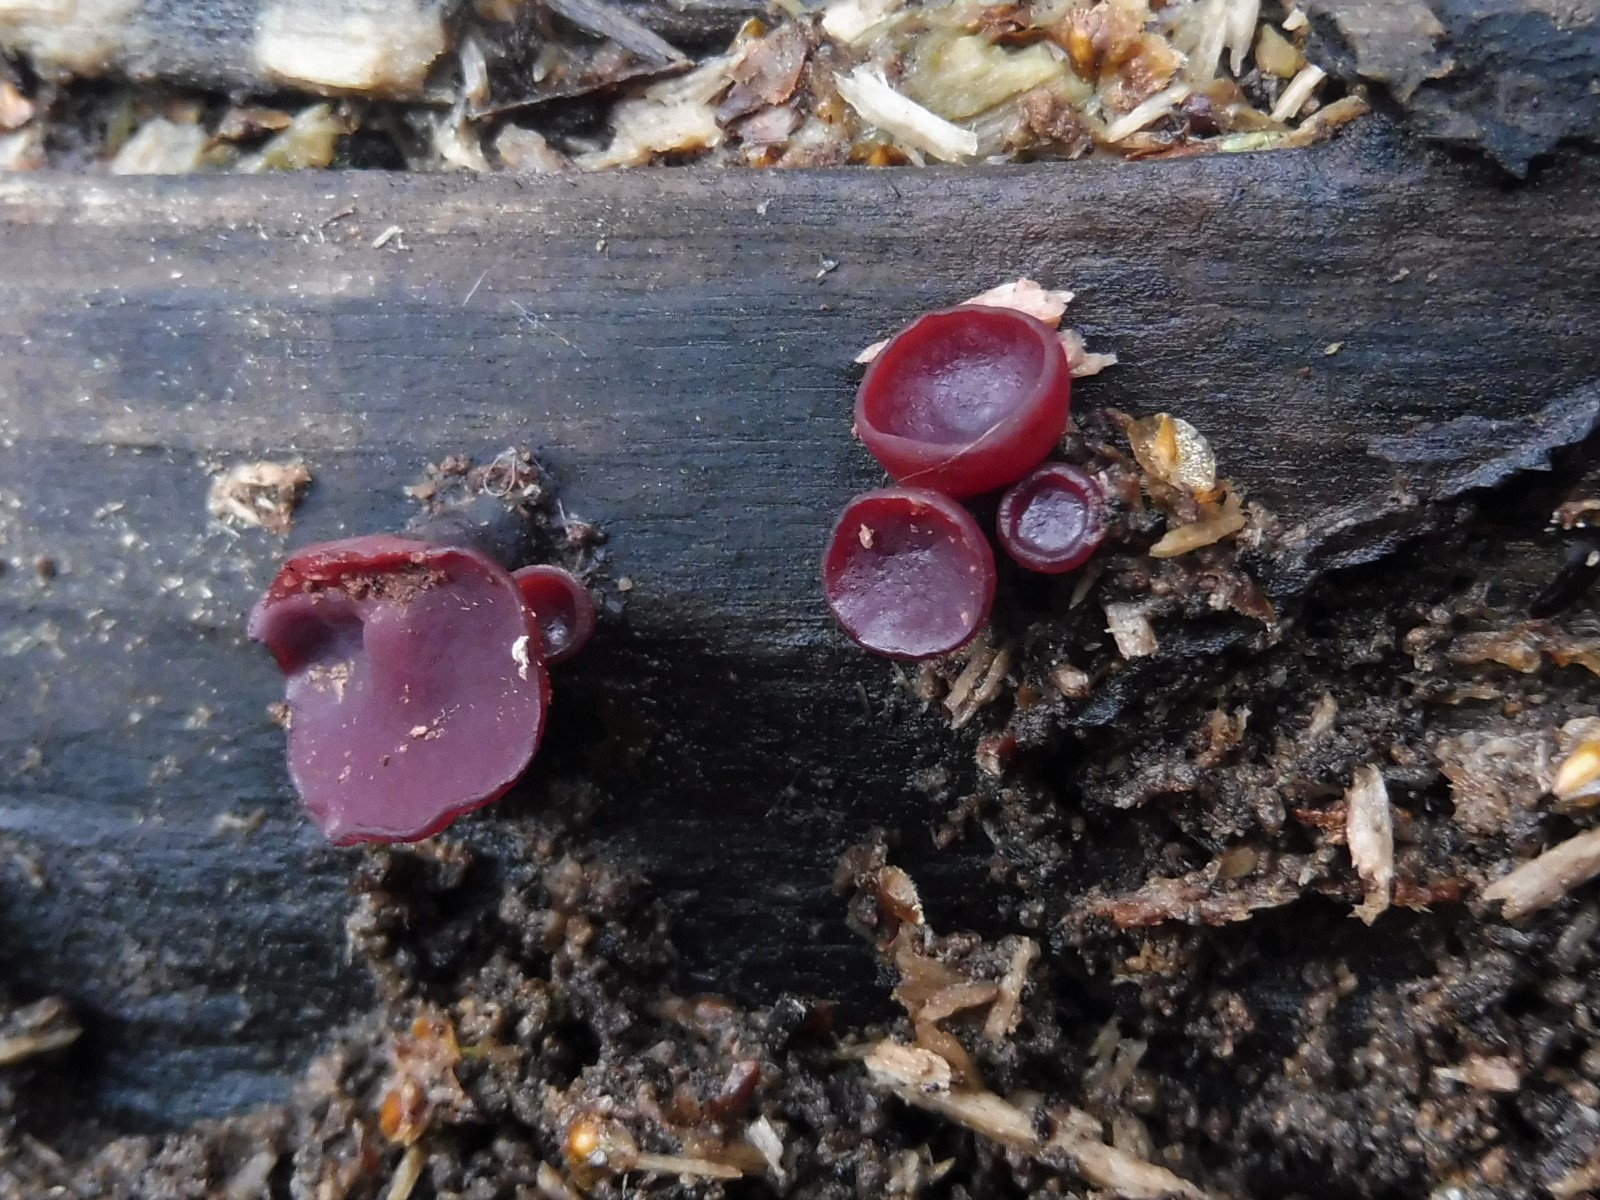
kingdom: Fungi
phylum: Ascomycota
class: Leotiomycetes
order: Helotiales
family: Gelatinodiscaceae
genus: Ascocoryne
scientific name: Ascocoryne cylichnium
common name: stor sejskive
